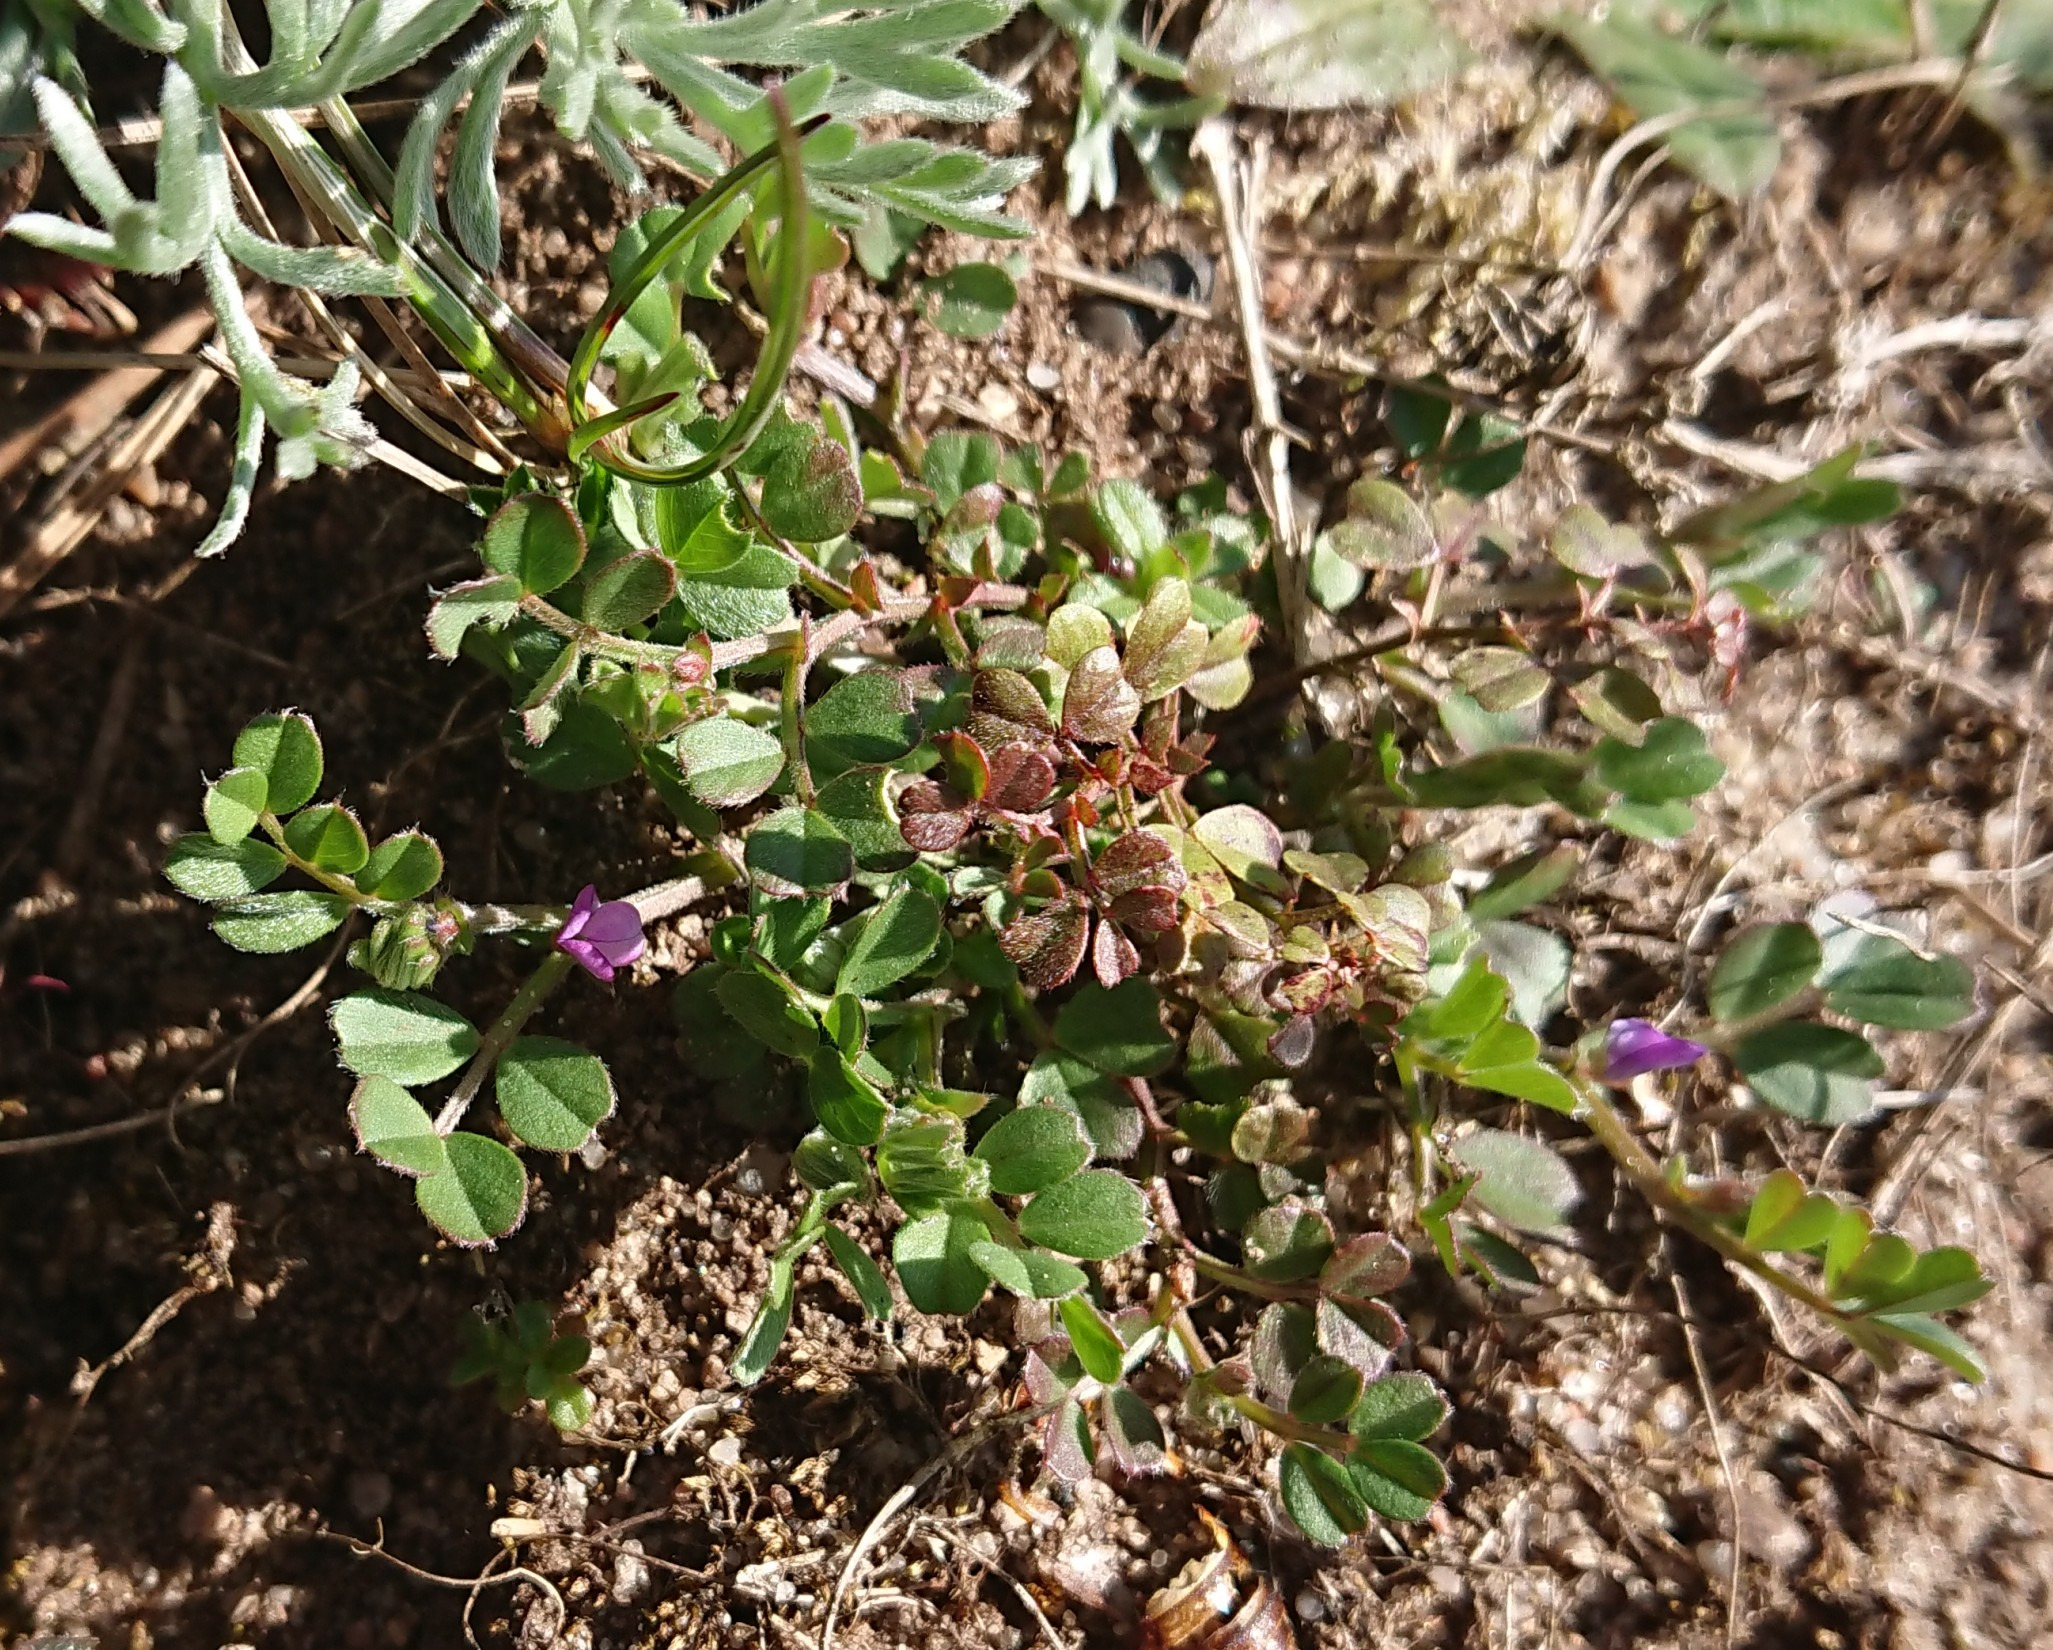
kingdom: Plantae
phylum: Tracheophyta
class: Magnoliopsida
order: Fabales
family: Fabaceae
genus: Vicia
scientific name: Vicia lathyroides
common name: Vår-vikke
